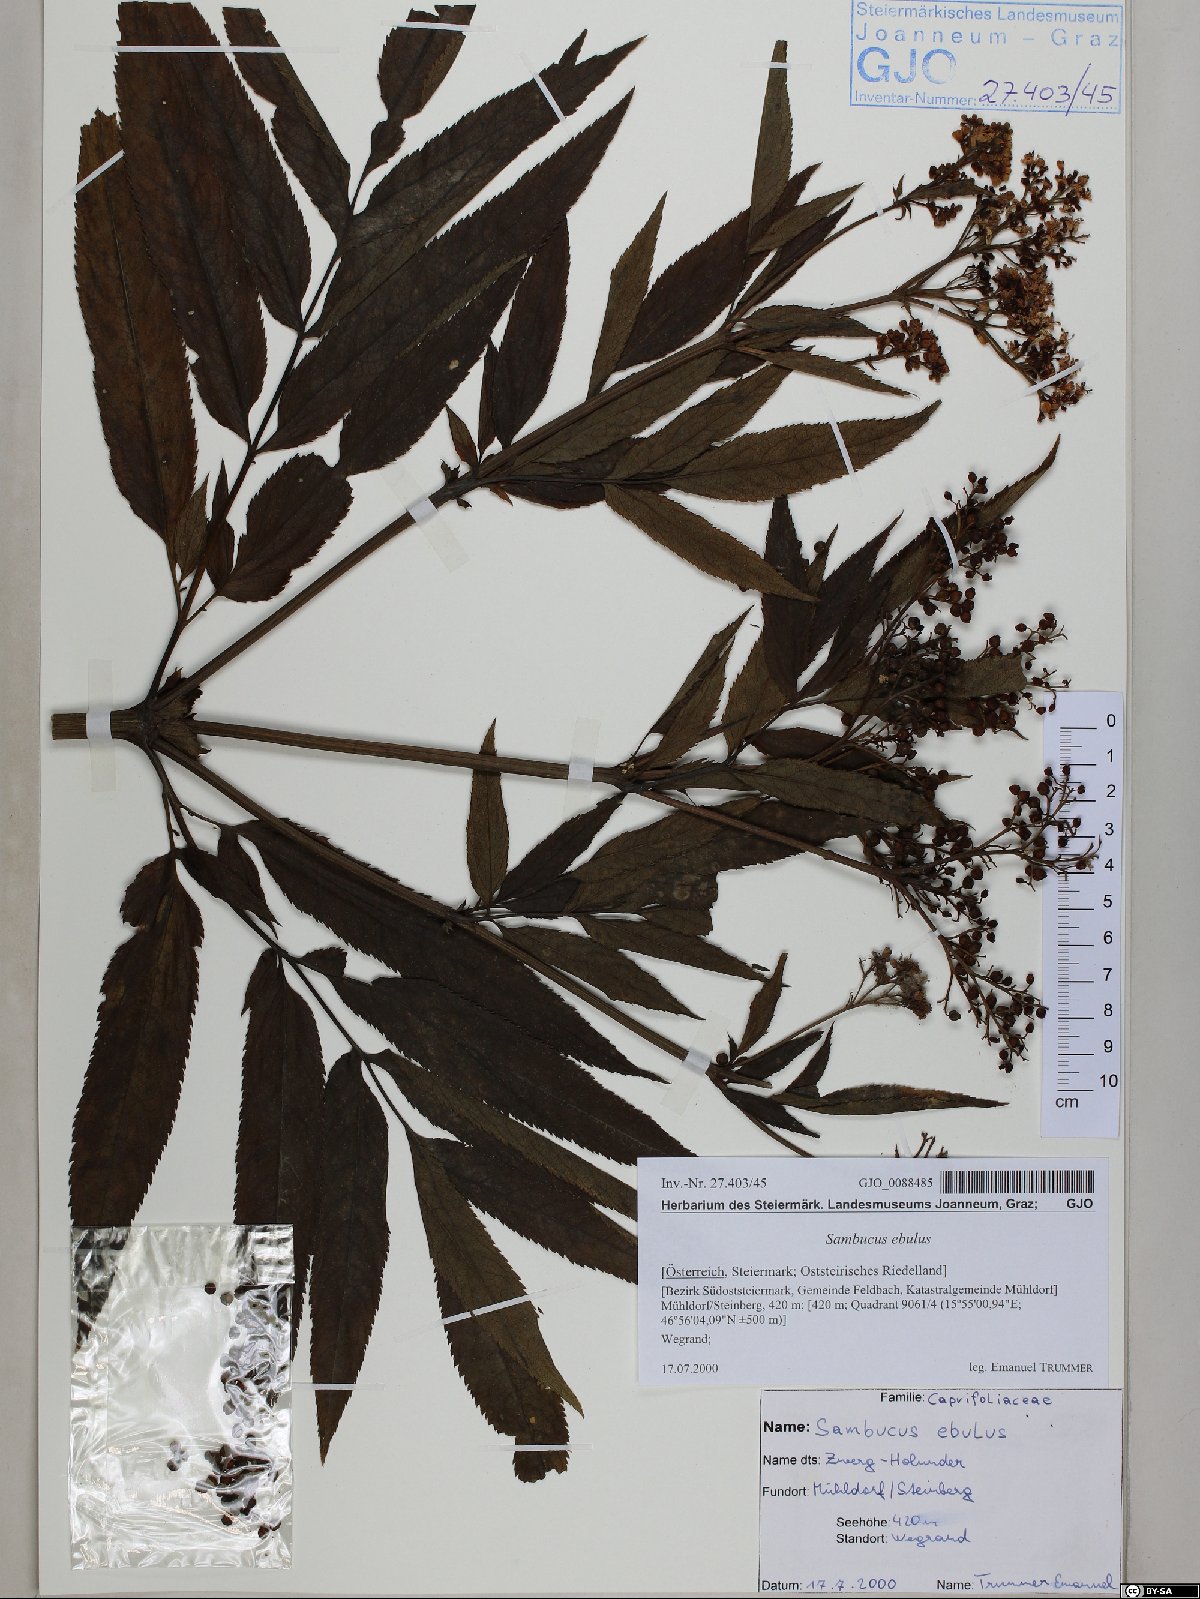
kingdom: Plantae
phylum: Tracheophyta
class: Magnoliopsida
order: Dipsacales
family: Viburnaceae
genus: Sambucus
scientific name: Sambucus ebulus
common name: Dwarf elder
